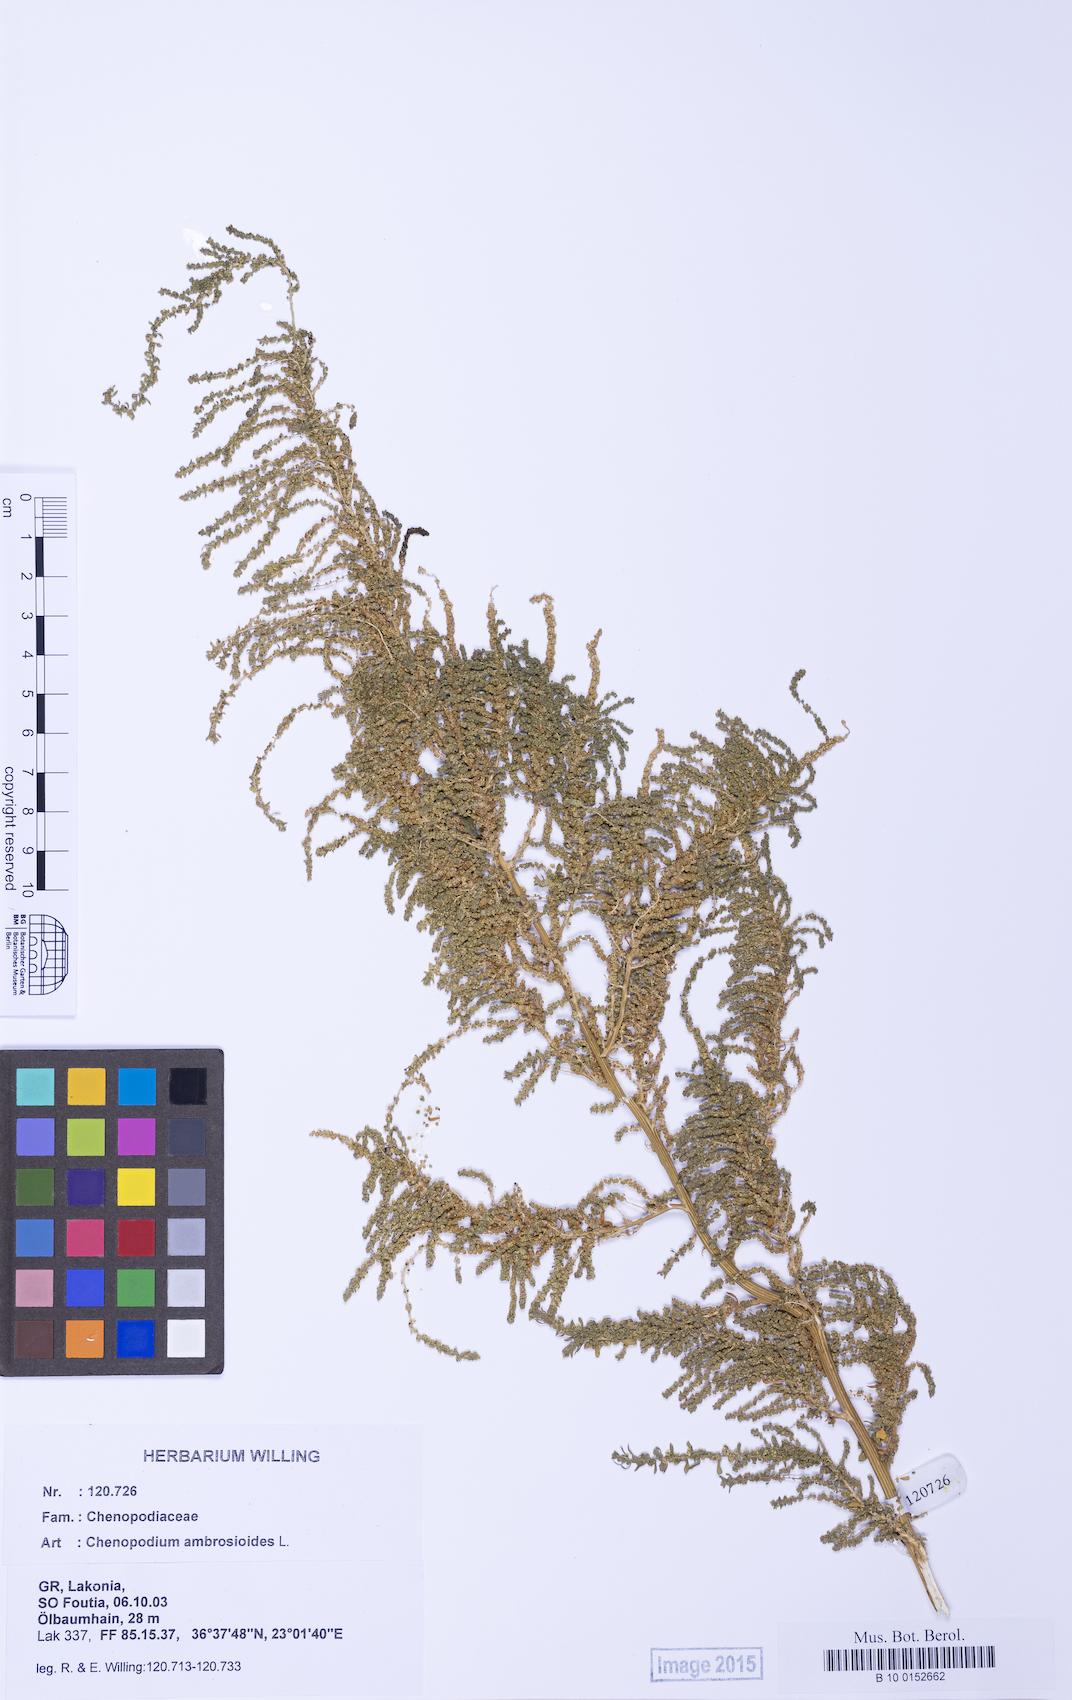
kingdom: Plantae
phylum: Tracheophyta
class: Magnoliopsida
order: Caryophyllales
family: Amaranthaceae
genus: Dysphania
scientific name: Dysphania ambrosioides
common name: Wormseed
